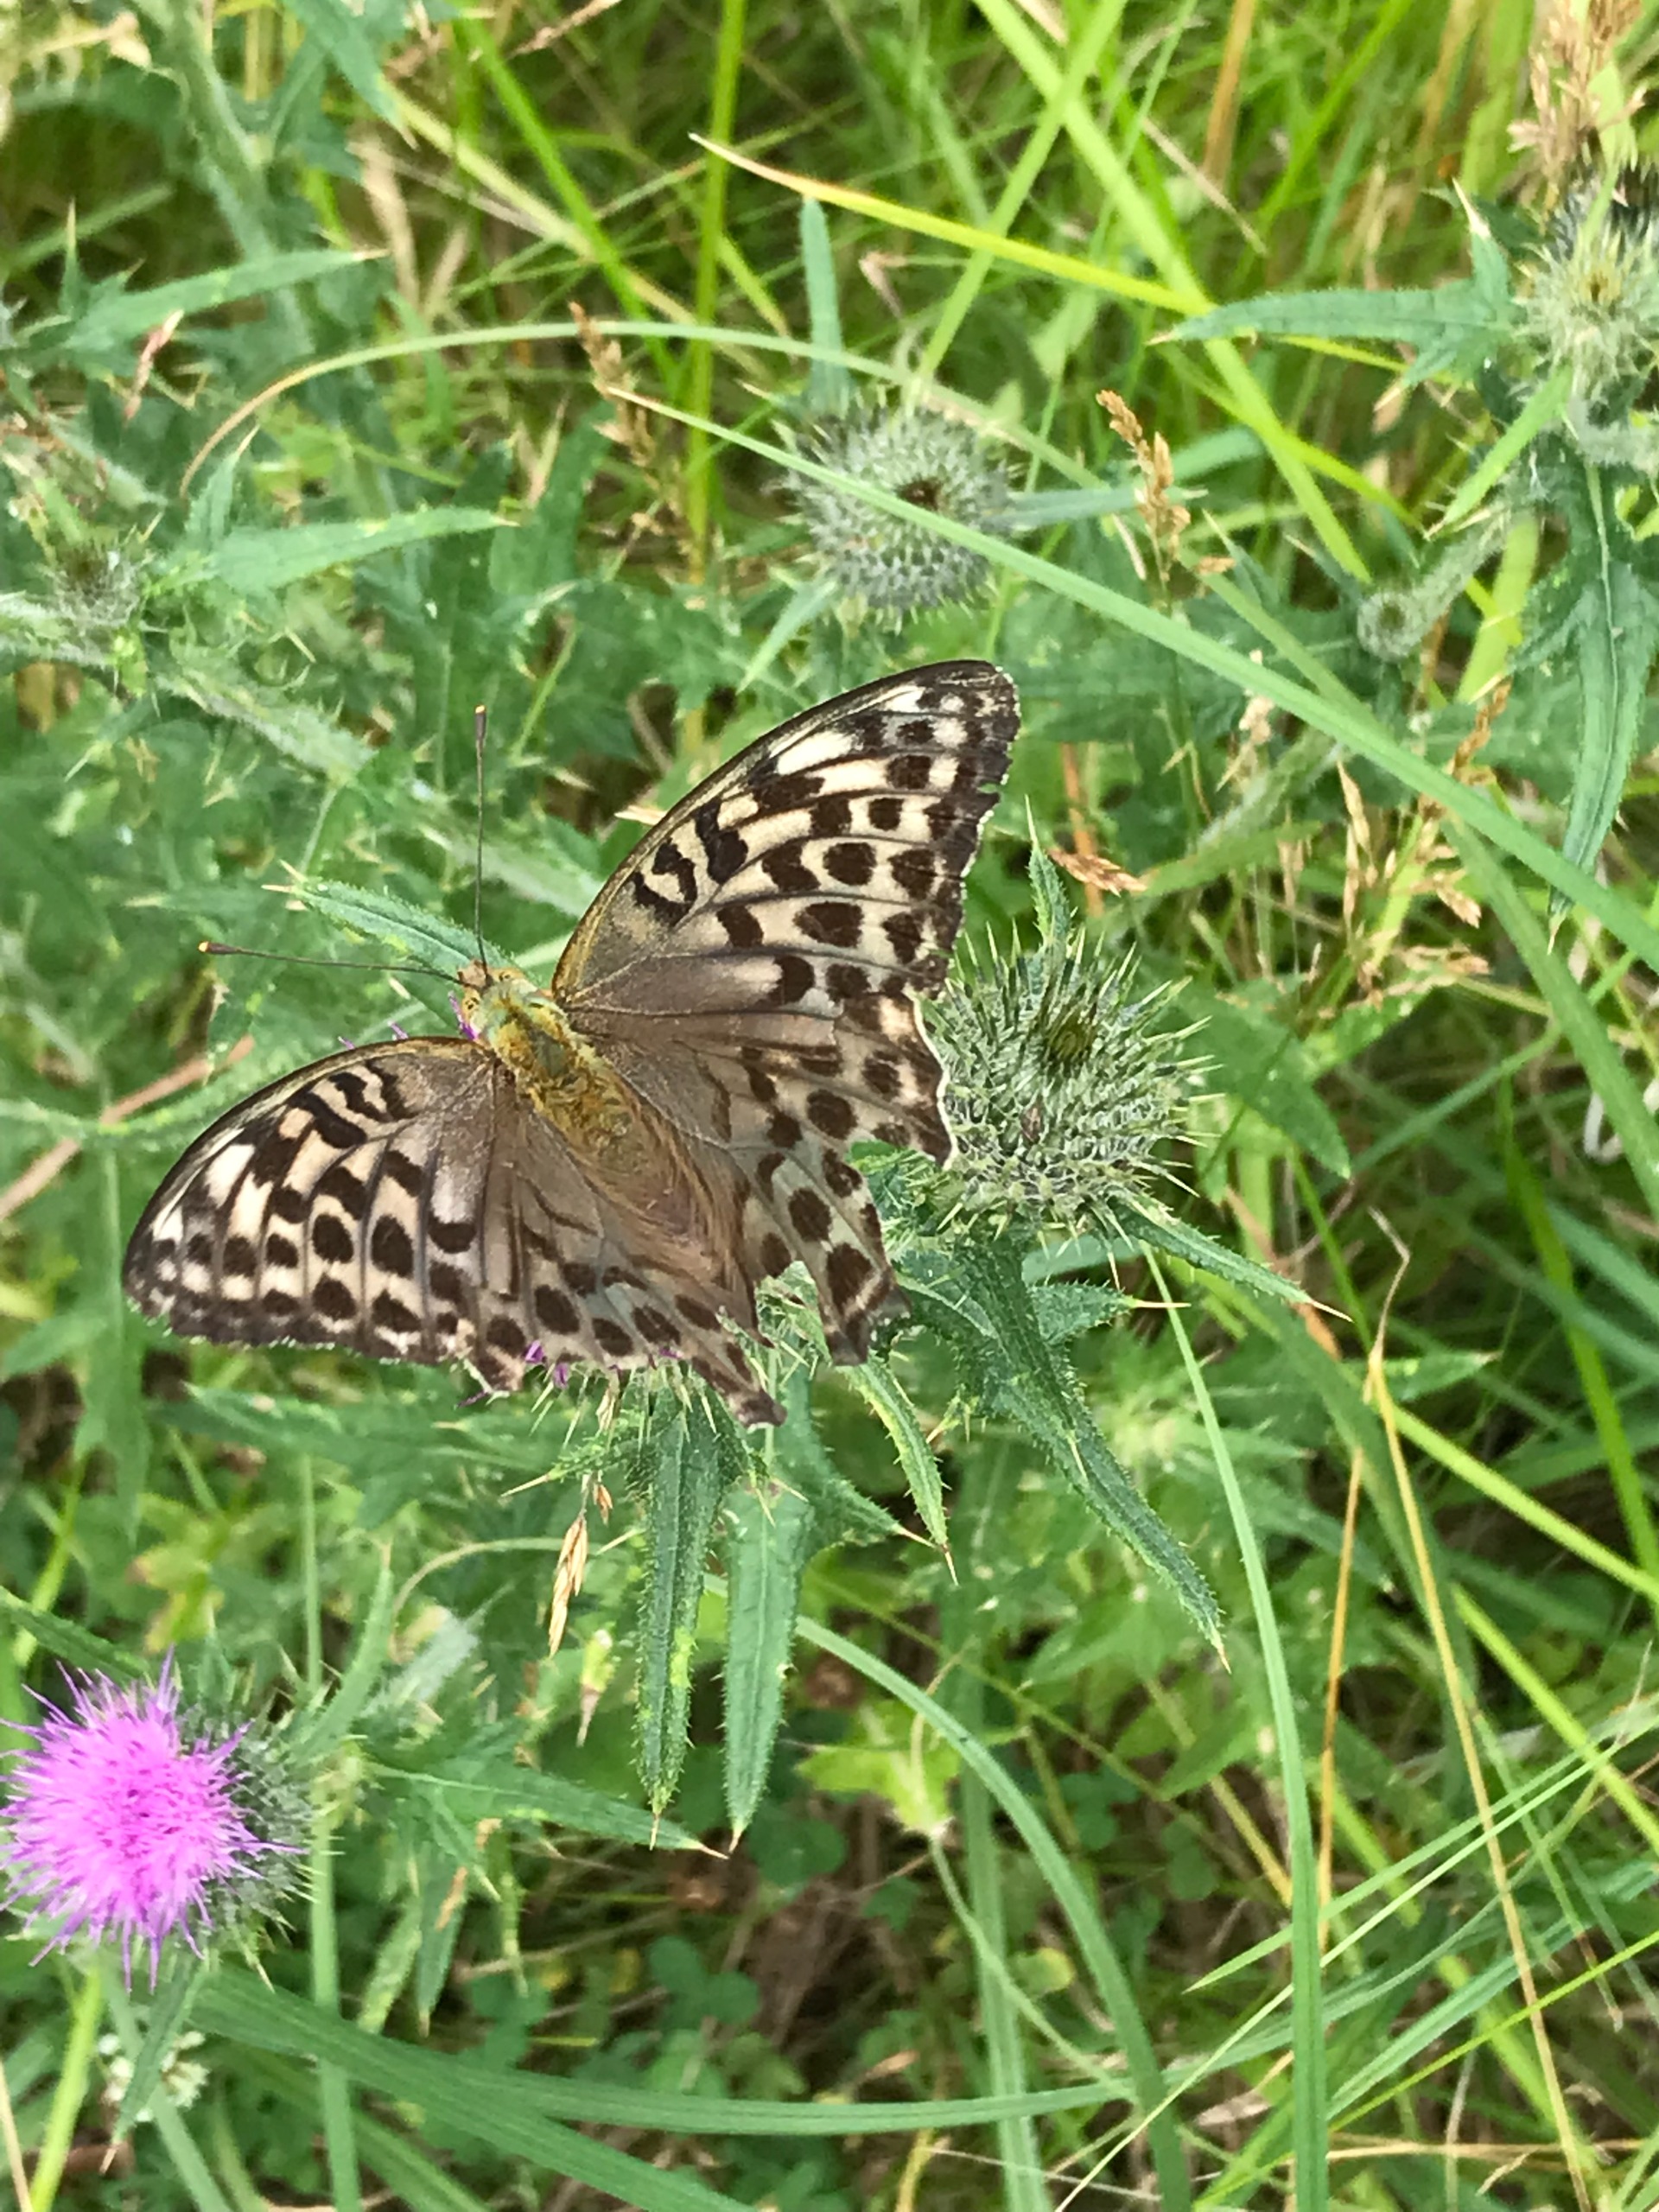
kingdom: Animalia
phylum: Arthropoda
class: Insecta
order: Lepidoptera
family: Nymphalidae
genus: Argynnis
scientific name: Argynnis paphia
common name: Kejserkåbe
